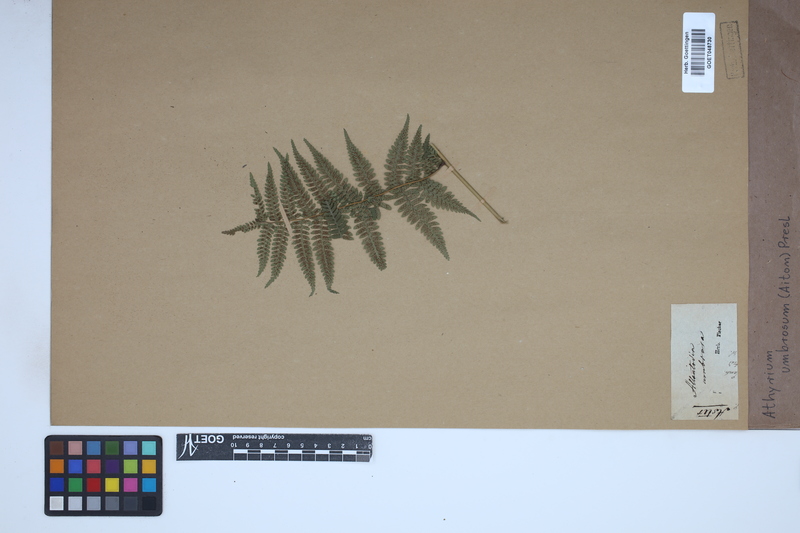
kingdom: Plantae
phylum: Tracheophyta
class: Polypodiopsida
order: Polypodiales
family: Athyriaceae
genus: Diplazium
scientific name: Diplazium caudatum
